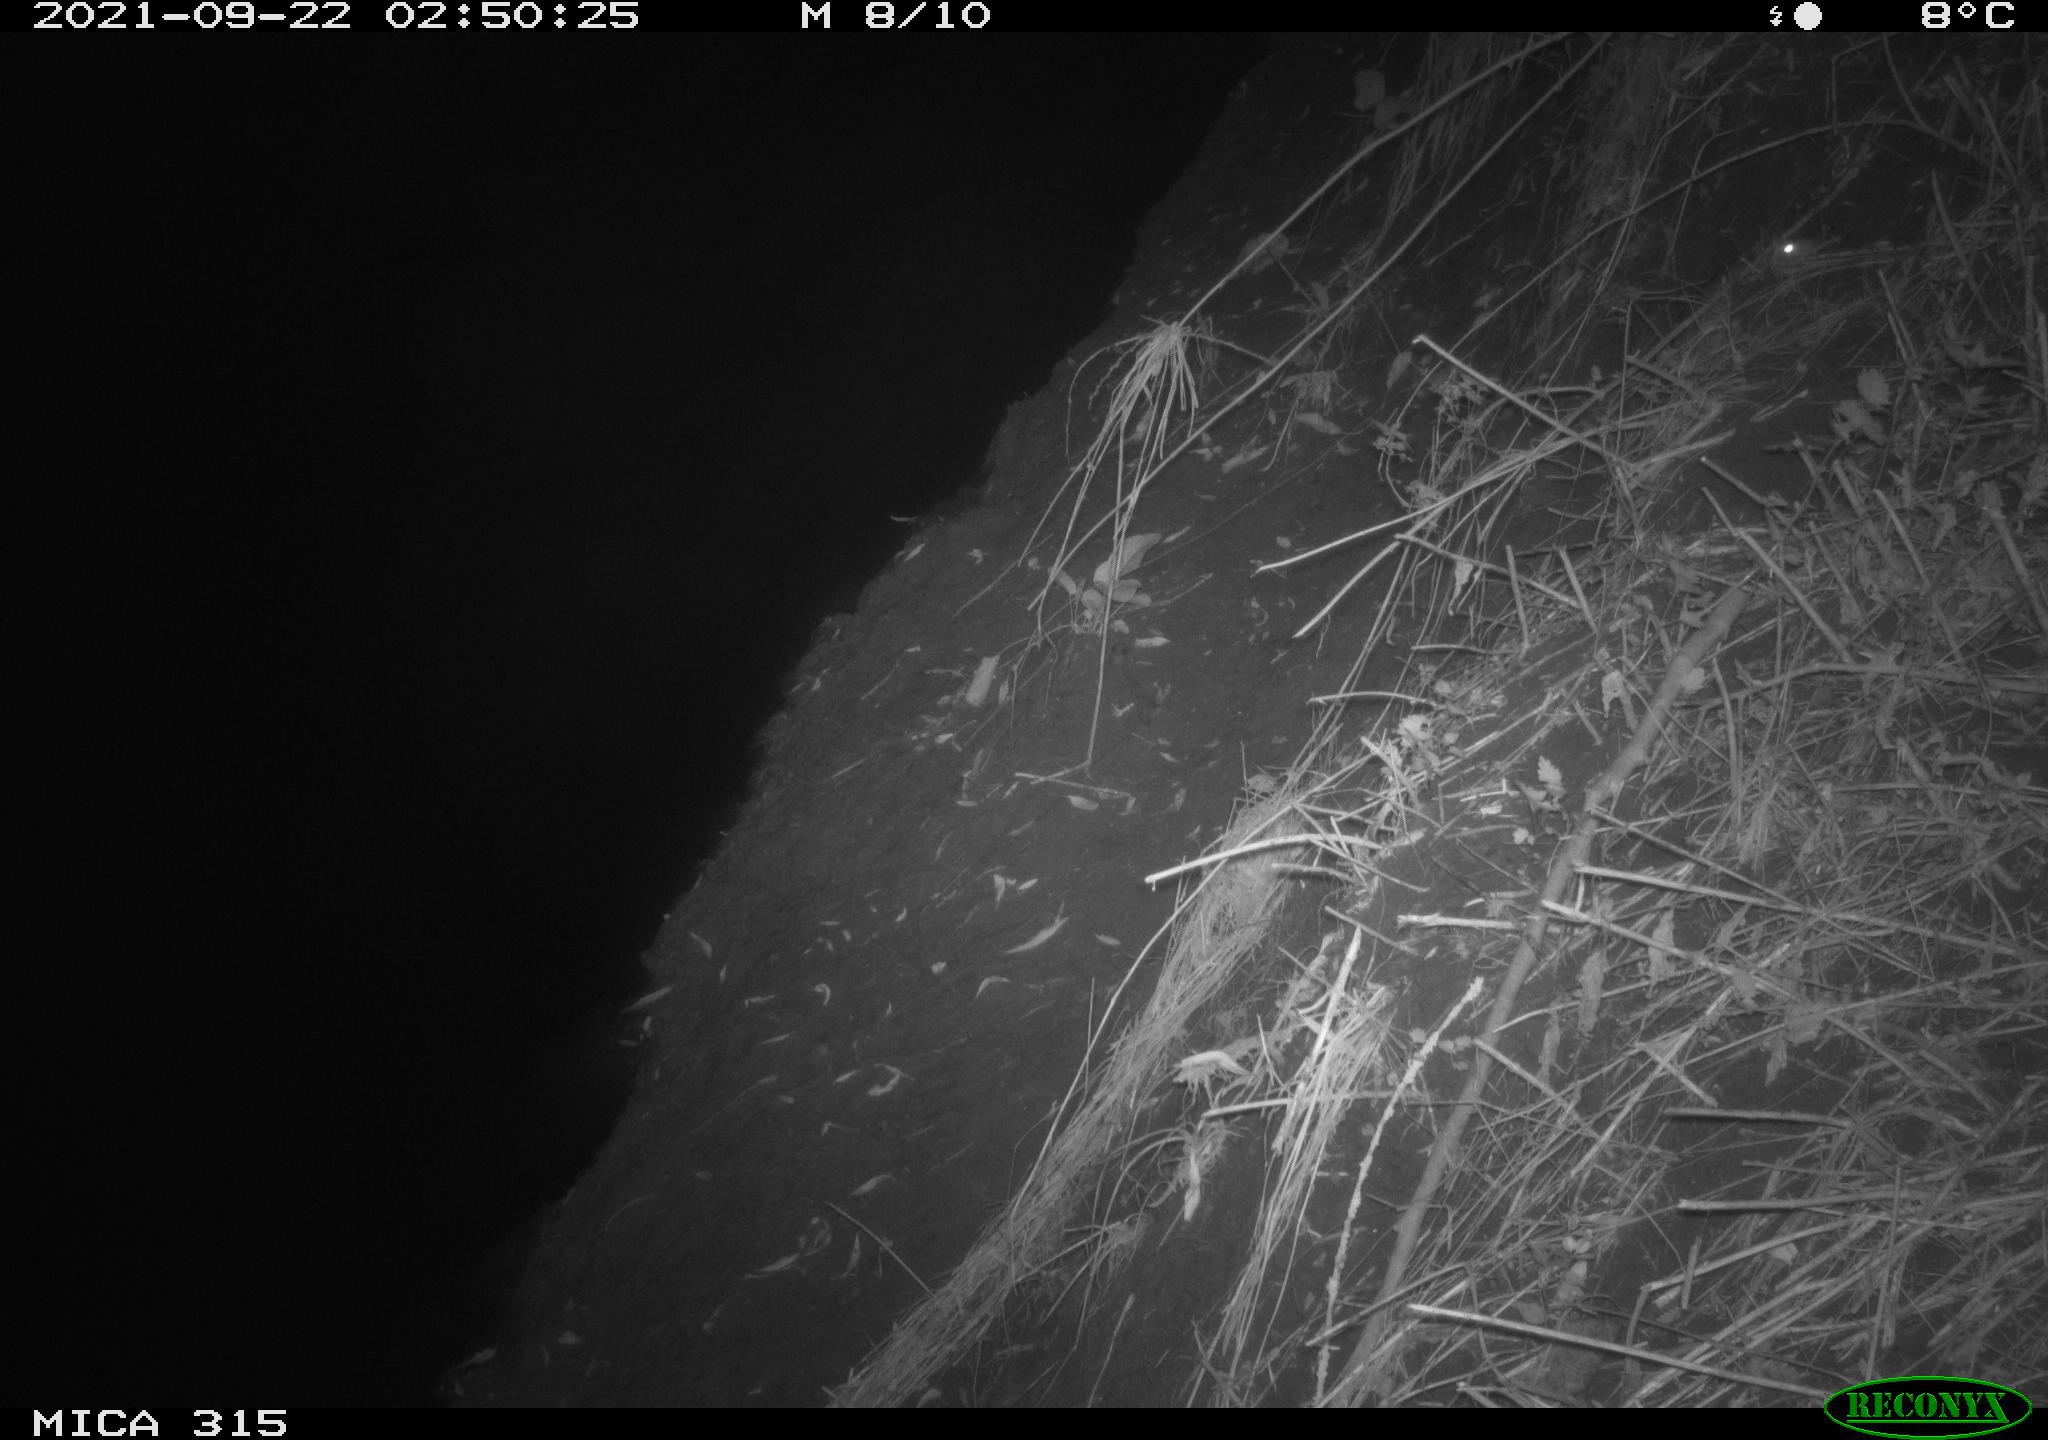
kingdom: Animalia
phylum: Chordata
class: Mammalia
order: Rodentia
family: Muridae
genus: Rattus
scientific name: Rattus norvegicus
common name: Brown rat
